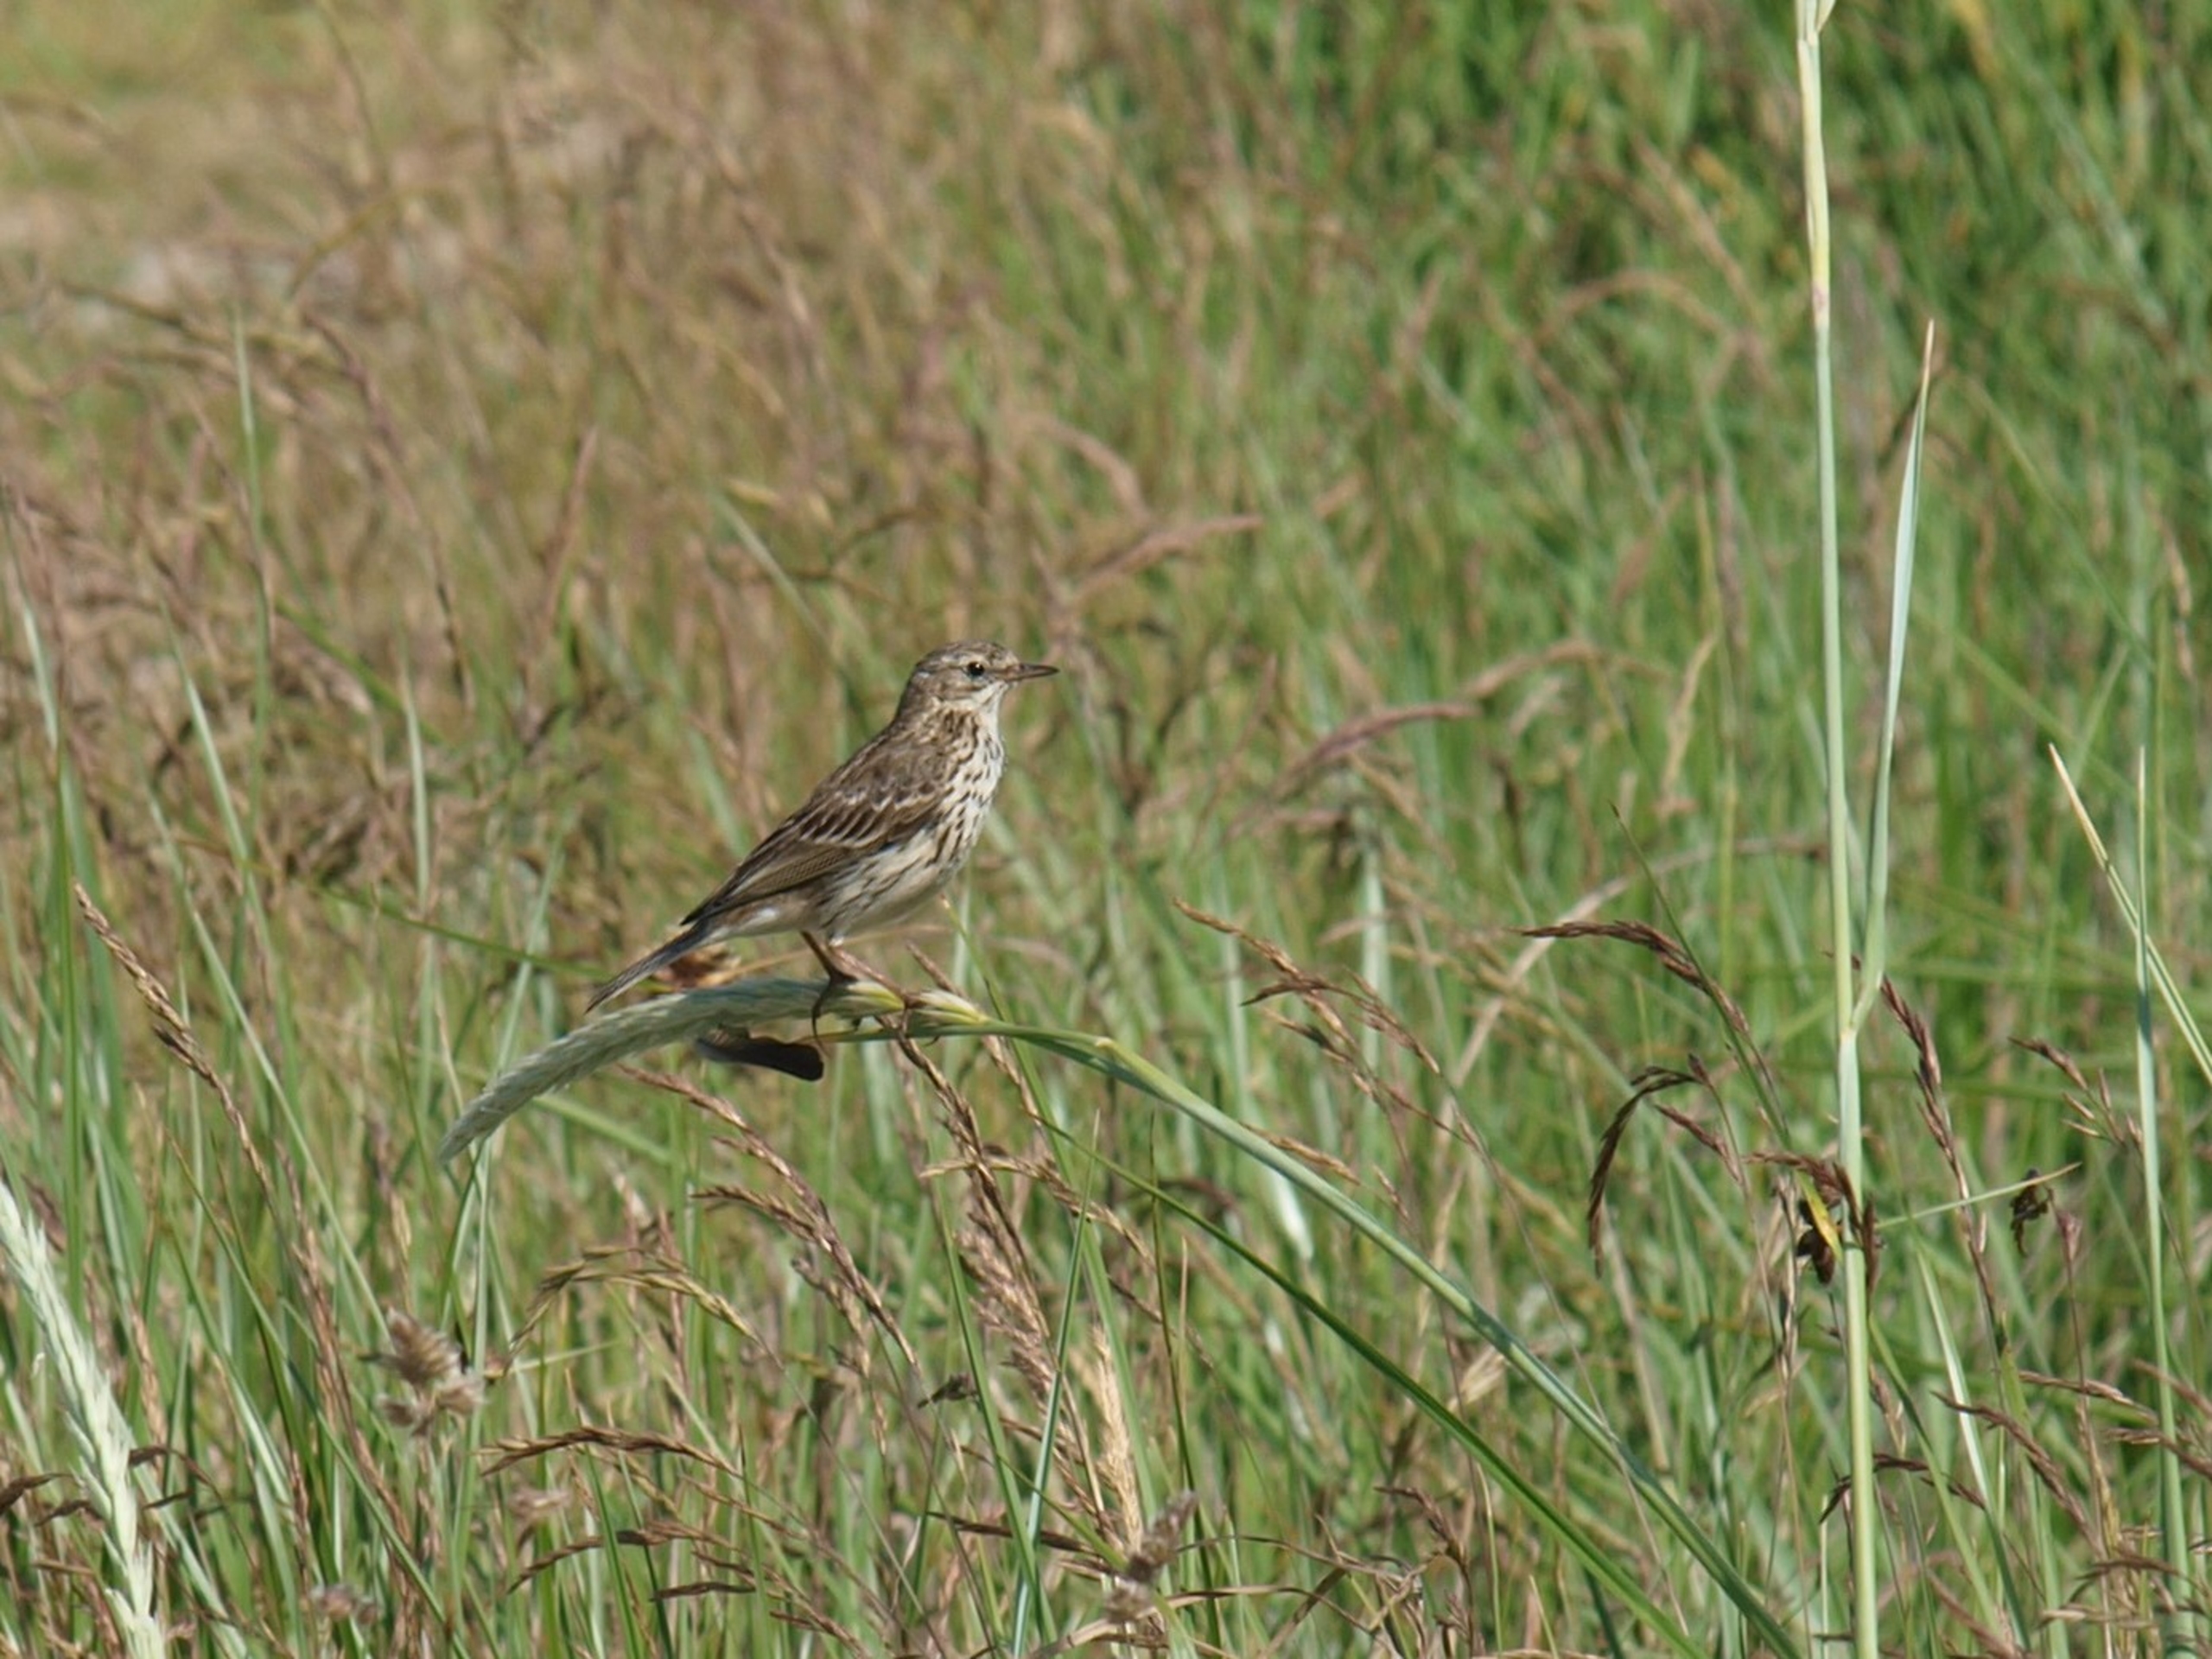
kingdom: Animalia
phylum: Chordata
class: Aves
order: Passeriformes
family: Motacillidae
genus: Anthus
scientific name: Anthus pratensis
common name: Engpiber
